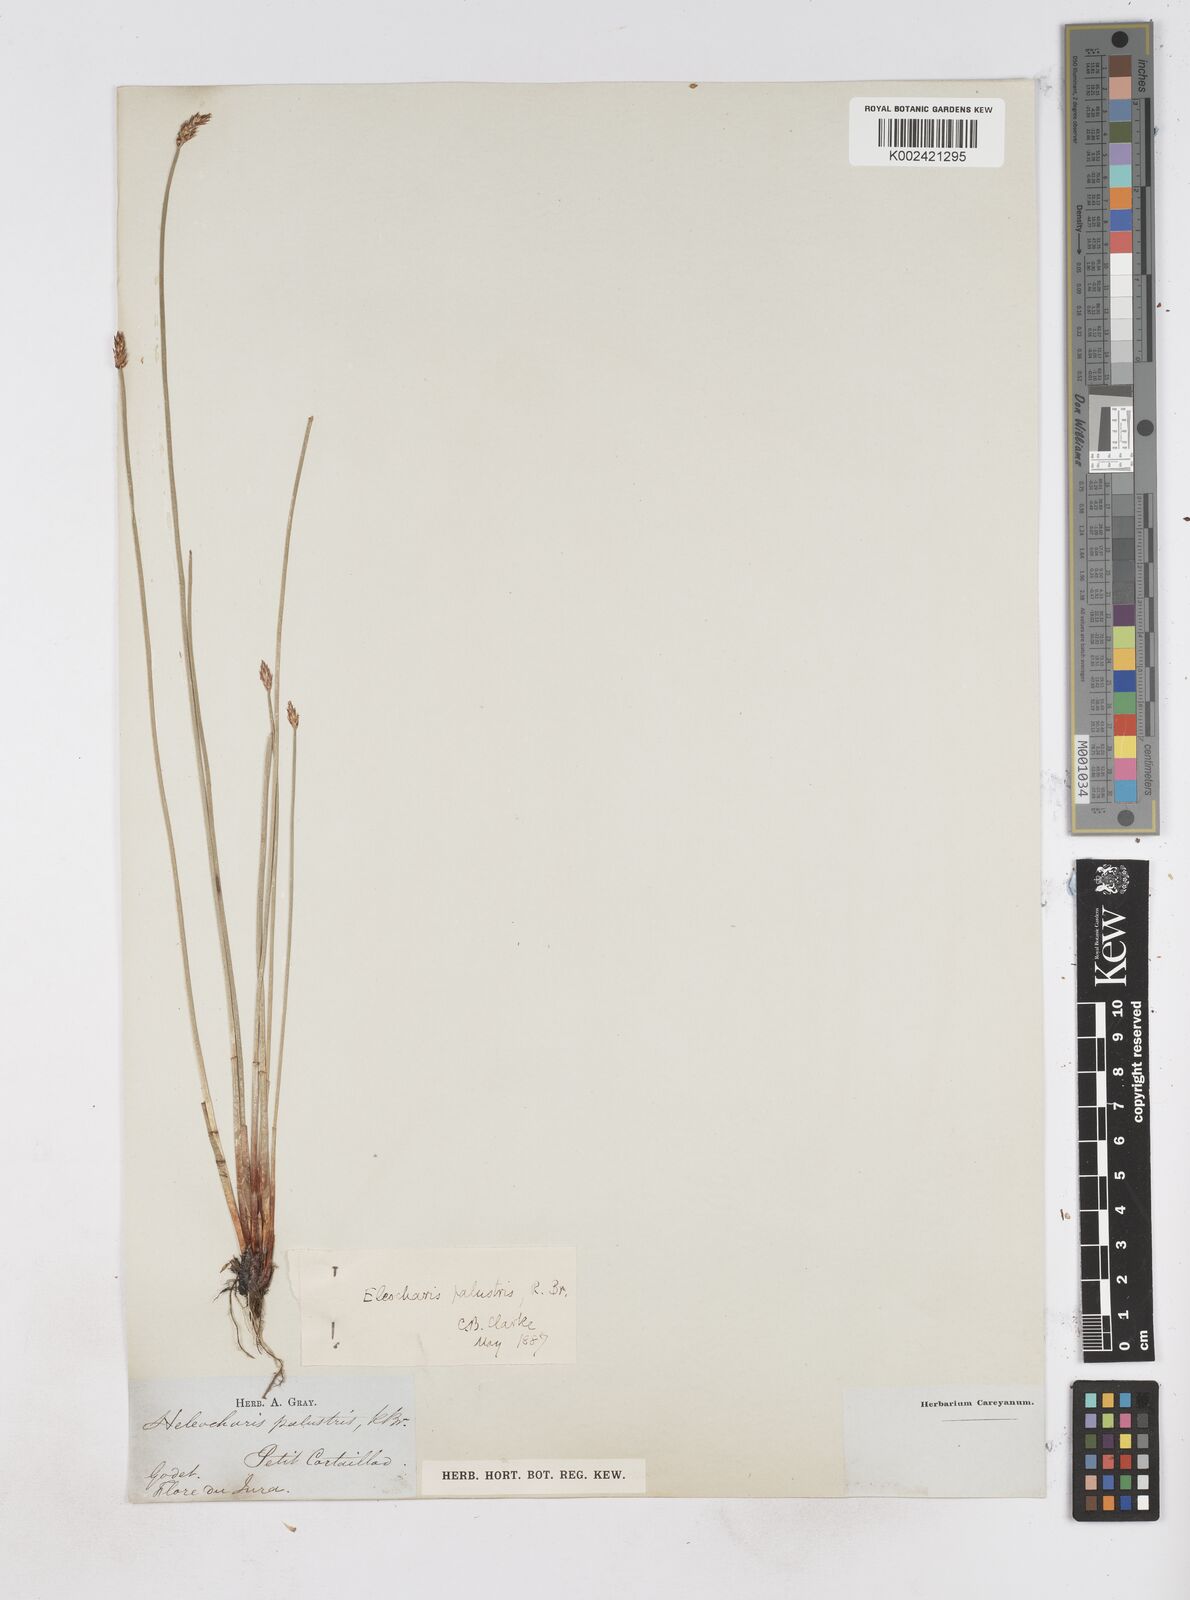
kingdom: Plantae
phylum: Tracheophyta
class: Liliopsida
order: Poales
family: Cyperaceae
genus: Eleocharis
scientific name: Eleocharis palustris
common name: Common spike-rush
